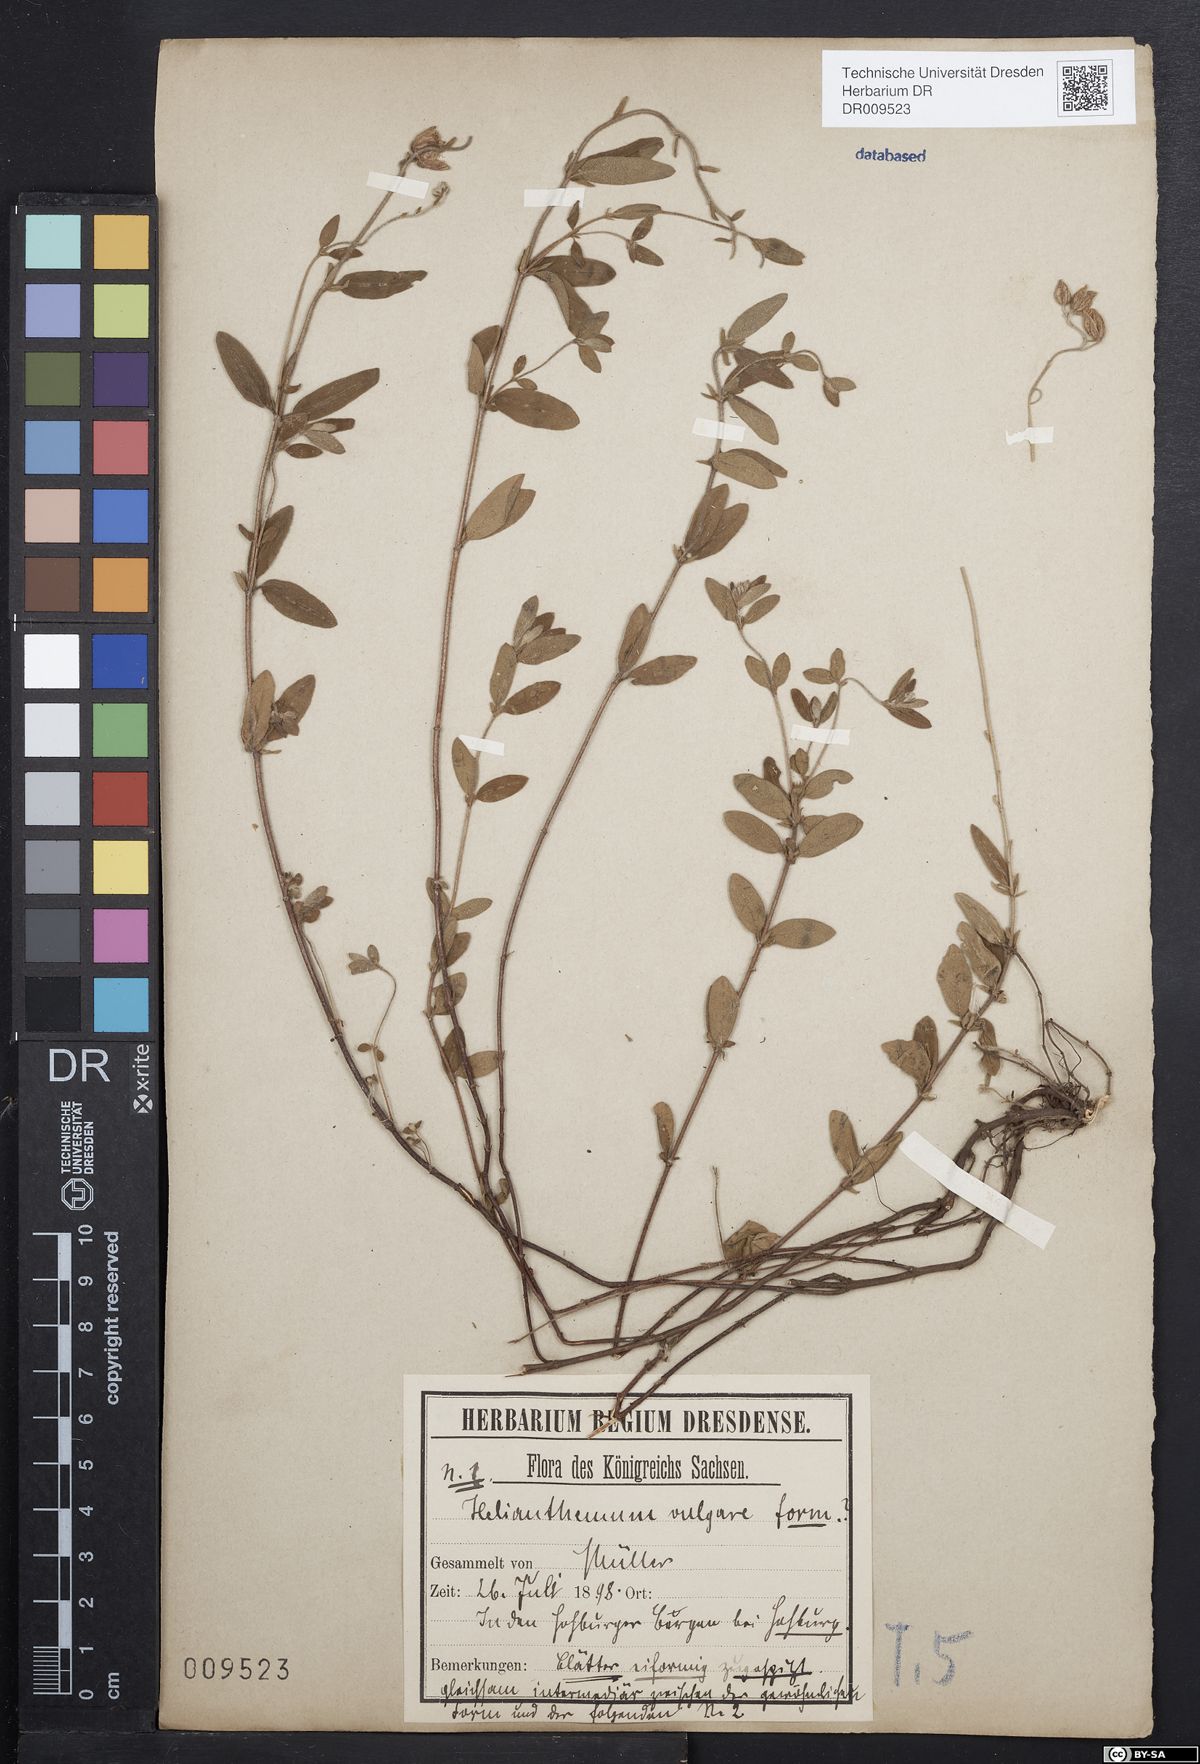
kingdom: Plantae
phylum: Tracheophyta
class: Magnoliopsida
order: Malvales
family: Cistaceae
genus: Helianthemum
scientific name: Helianthemum nummularium
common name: Common rock-rose
